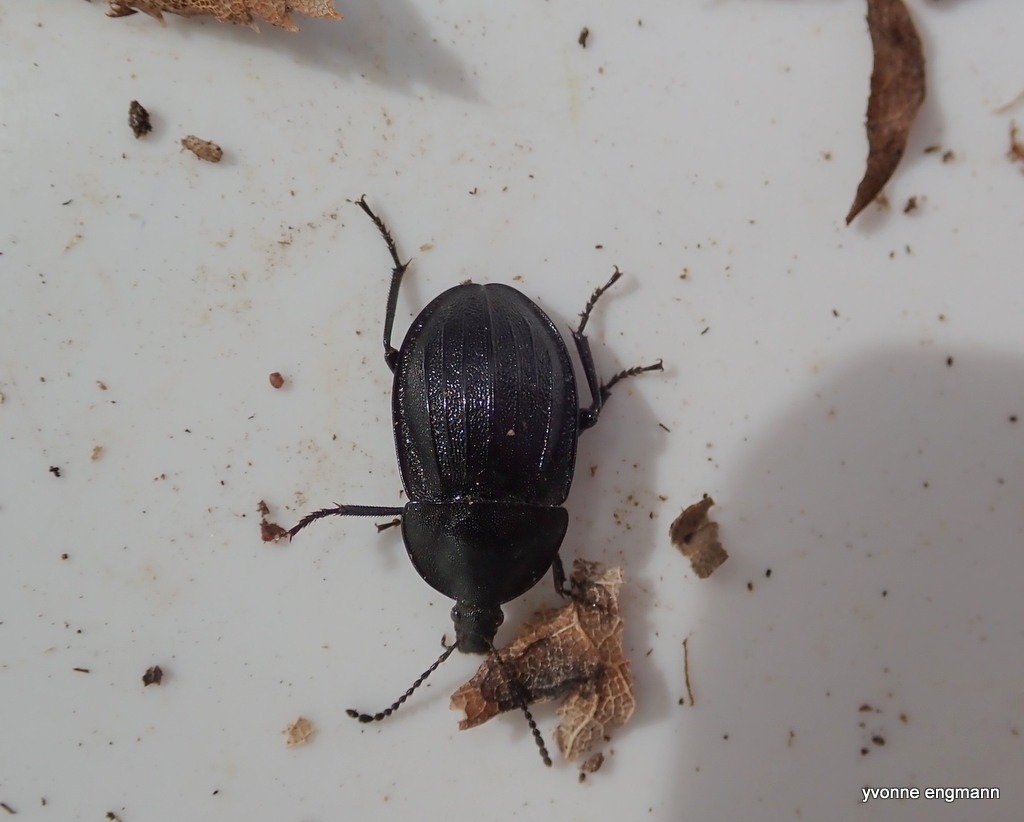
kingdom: Animalia
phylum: Arthropoda
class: Insecta
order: Coleoptera
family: Staphylinidae
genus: Silpha
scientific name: Silpha atrata
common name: Snegleådselbille
